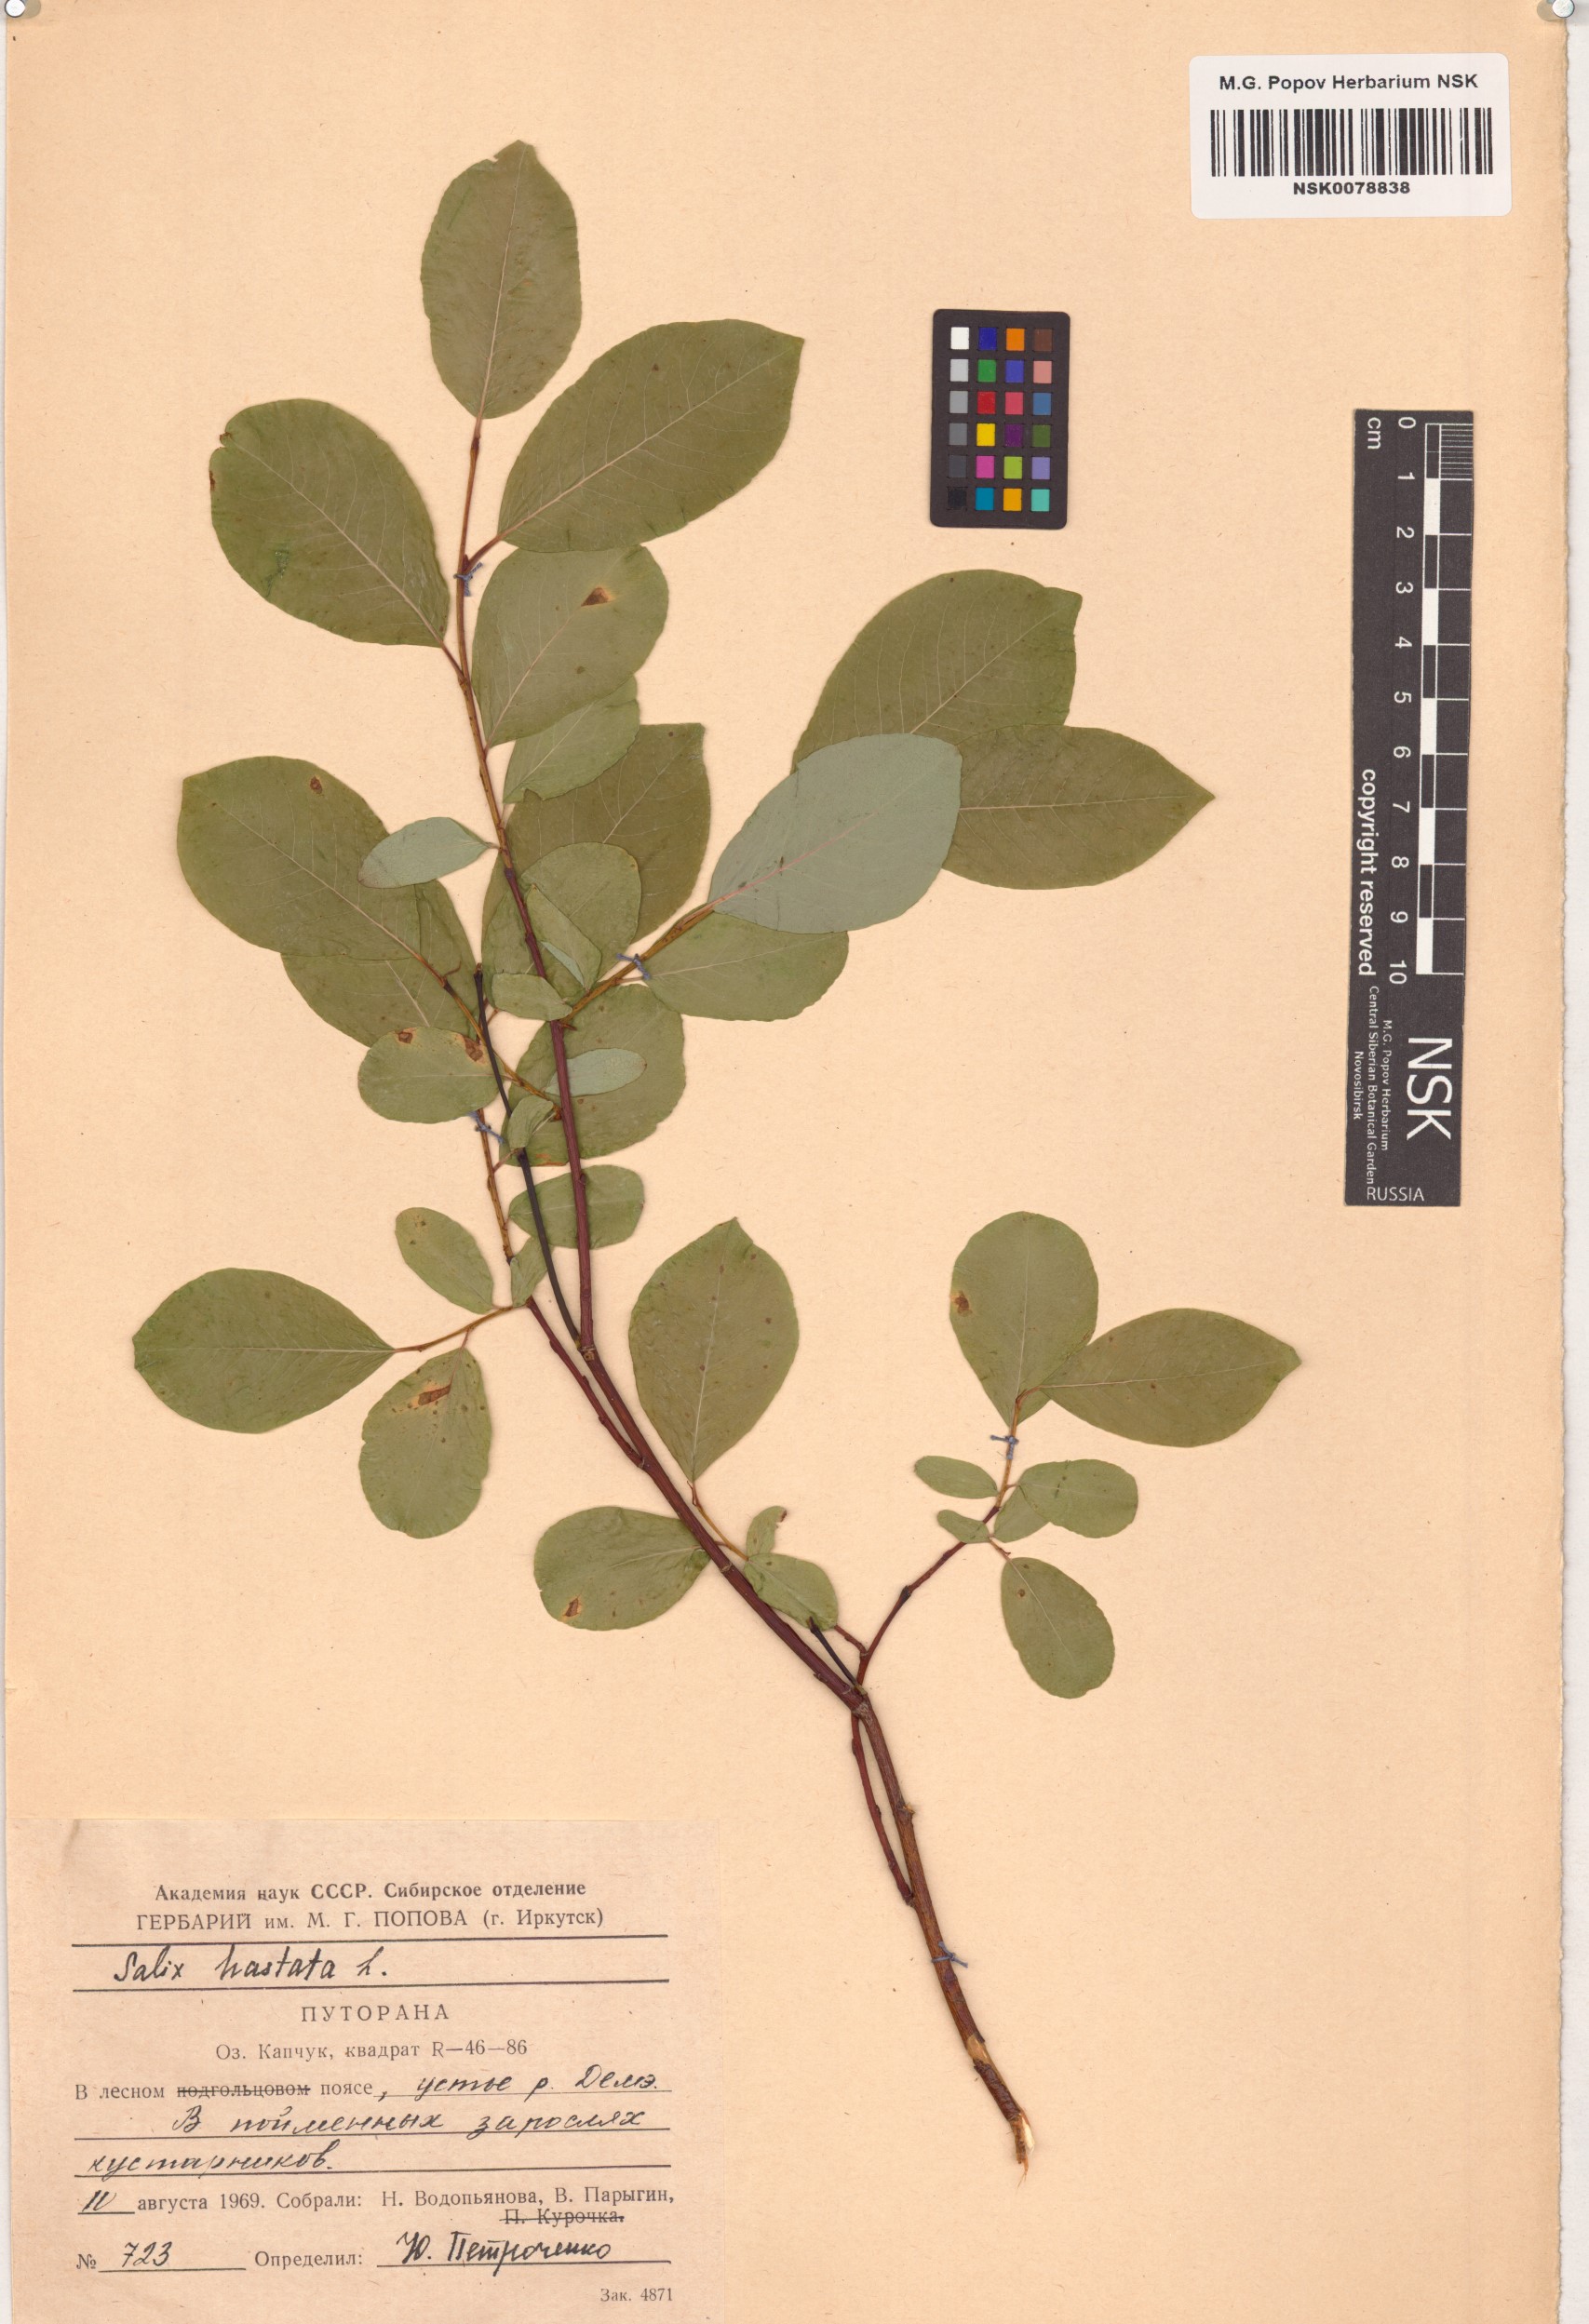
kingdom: Plantae
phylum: Tracheophyta
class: Magnoliopsida
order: Malpighiales
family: Salicaceae
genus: Salix
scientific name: Salix hastata
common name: Halberd willow
